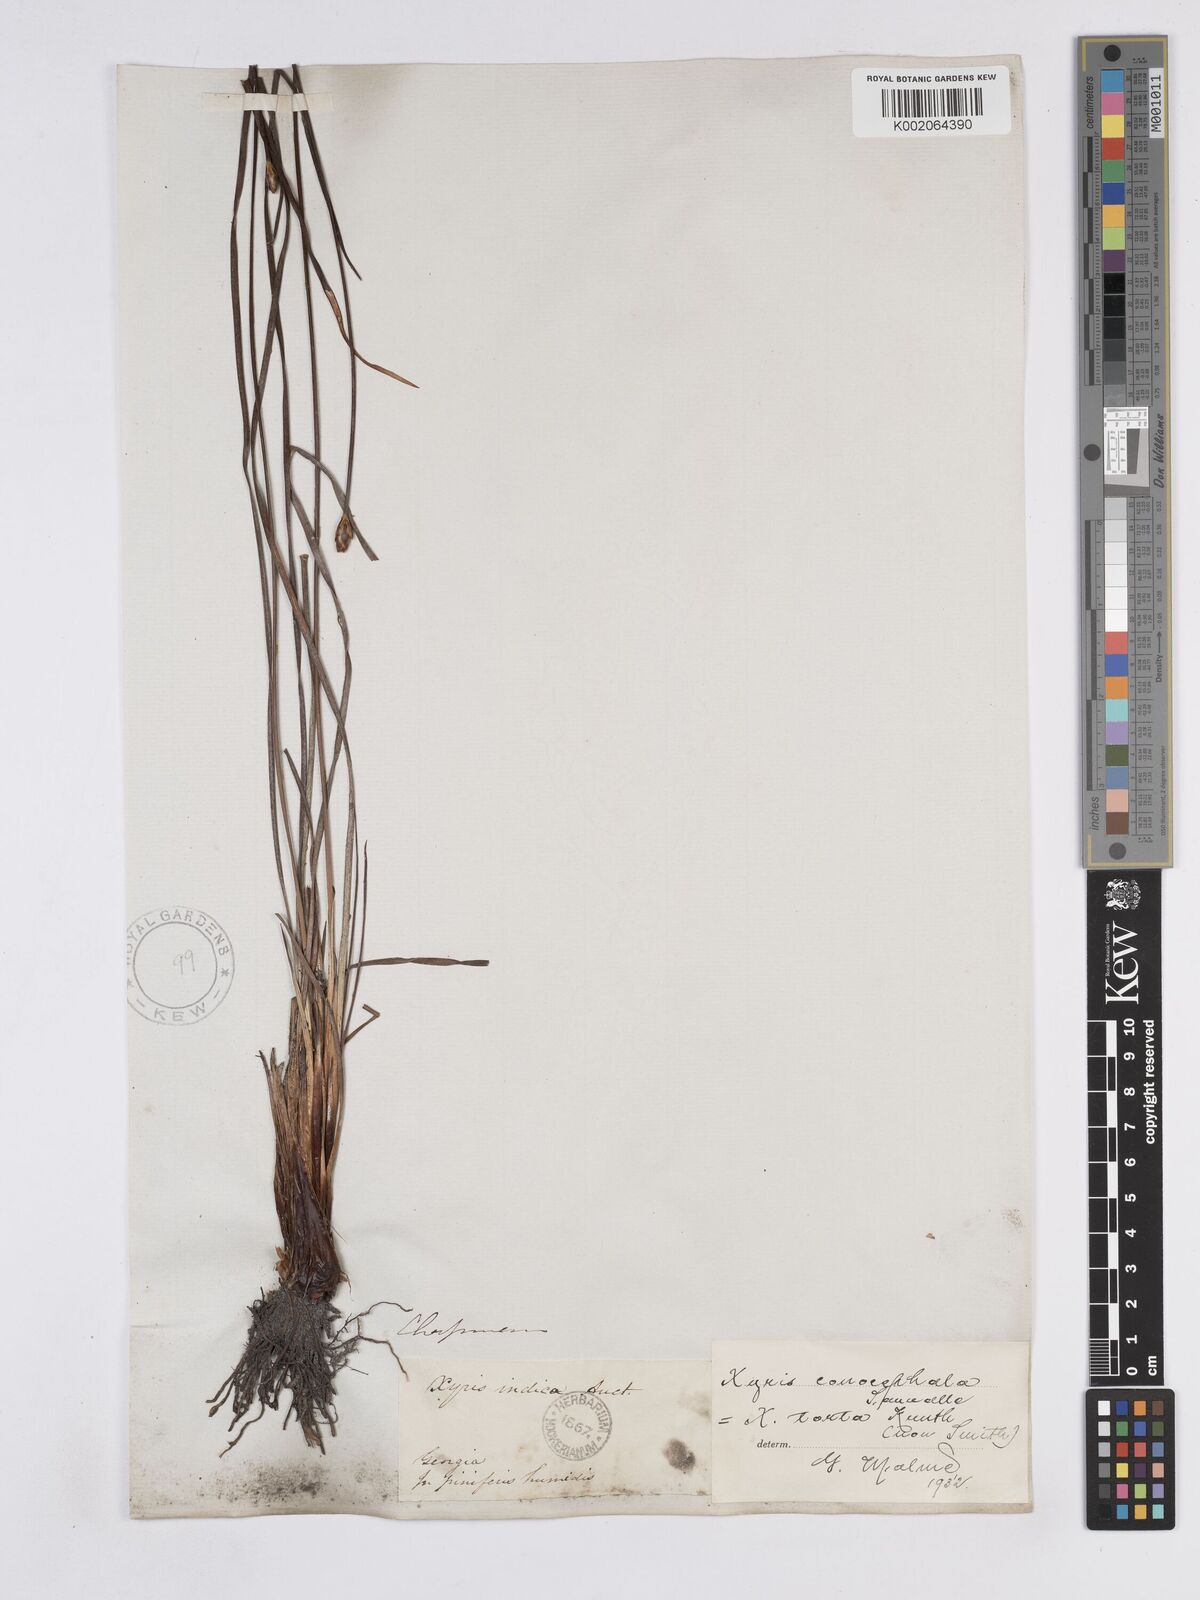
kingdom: Plantae
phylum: Tracheophyta
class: Liliopsida
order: Poales
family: Xyridaceae
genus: Xyris
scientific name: Xyris caroliniana
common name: Carolina yellow-eyed-grass
